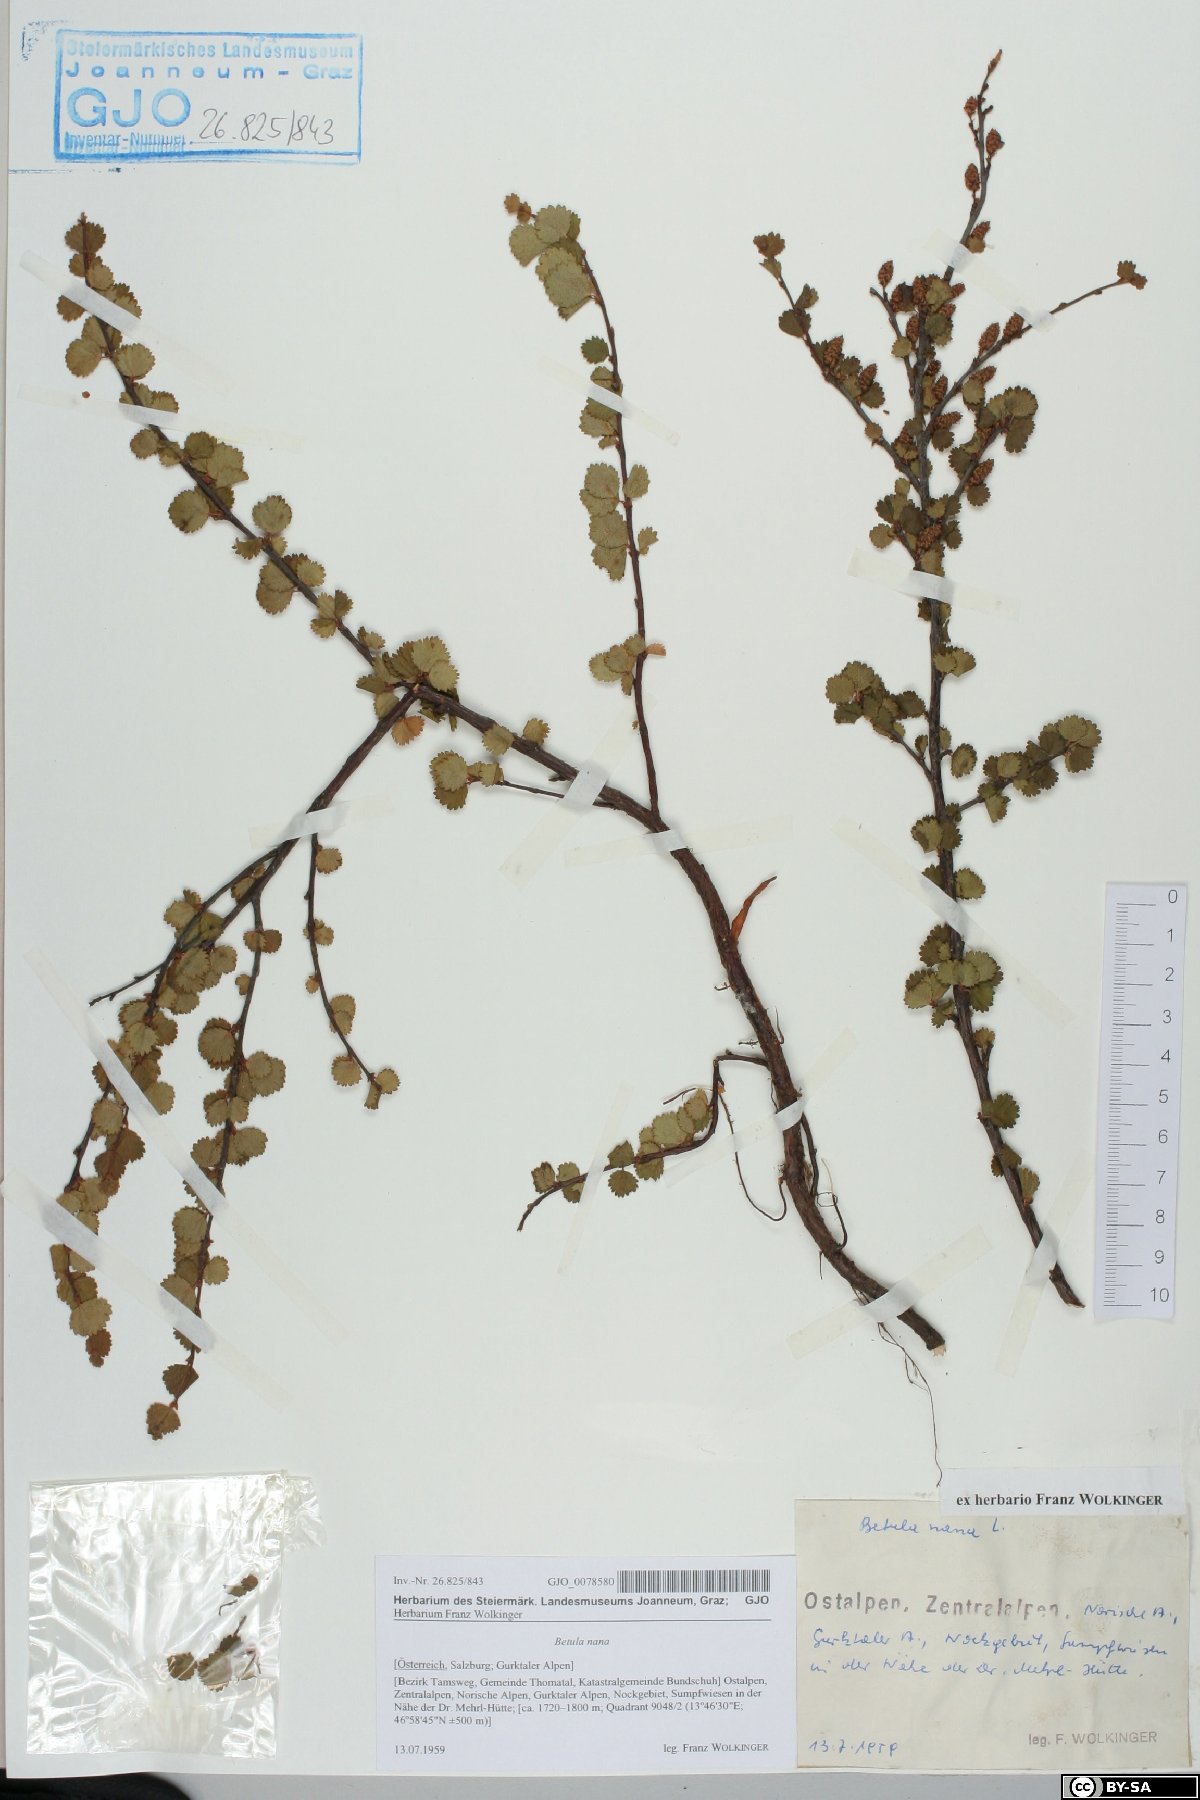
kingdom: Plantae
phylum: Tracheophyta
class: Magnoliopsida
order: Fagales
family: Betulaceae
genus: Betula
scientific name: Betula nana
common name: Arctic dwarf birch
